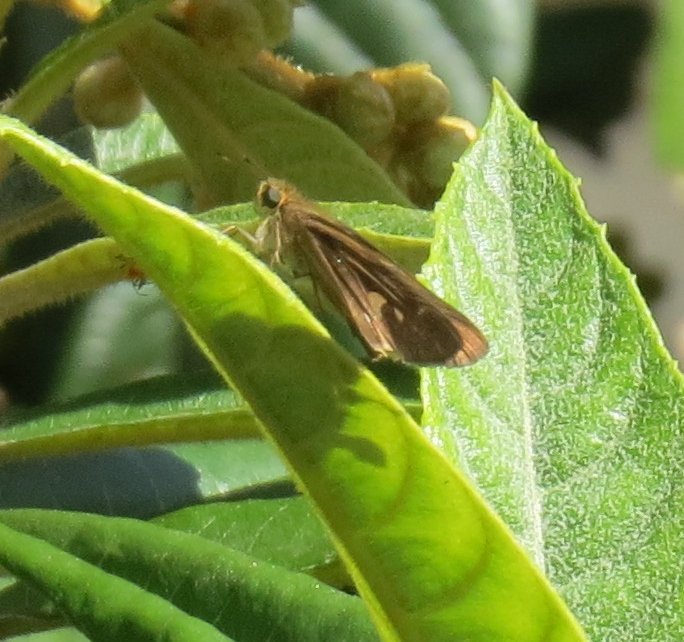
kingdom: Animalia
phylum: Arthropoda
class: Insecta
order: Lepidoptera
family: Hesperiidae
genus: Panoquina
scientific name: Panoquina ocola
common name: Ocola Skipper
